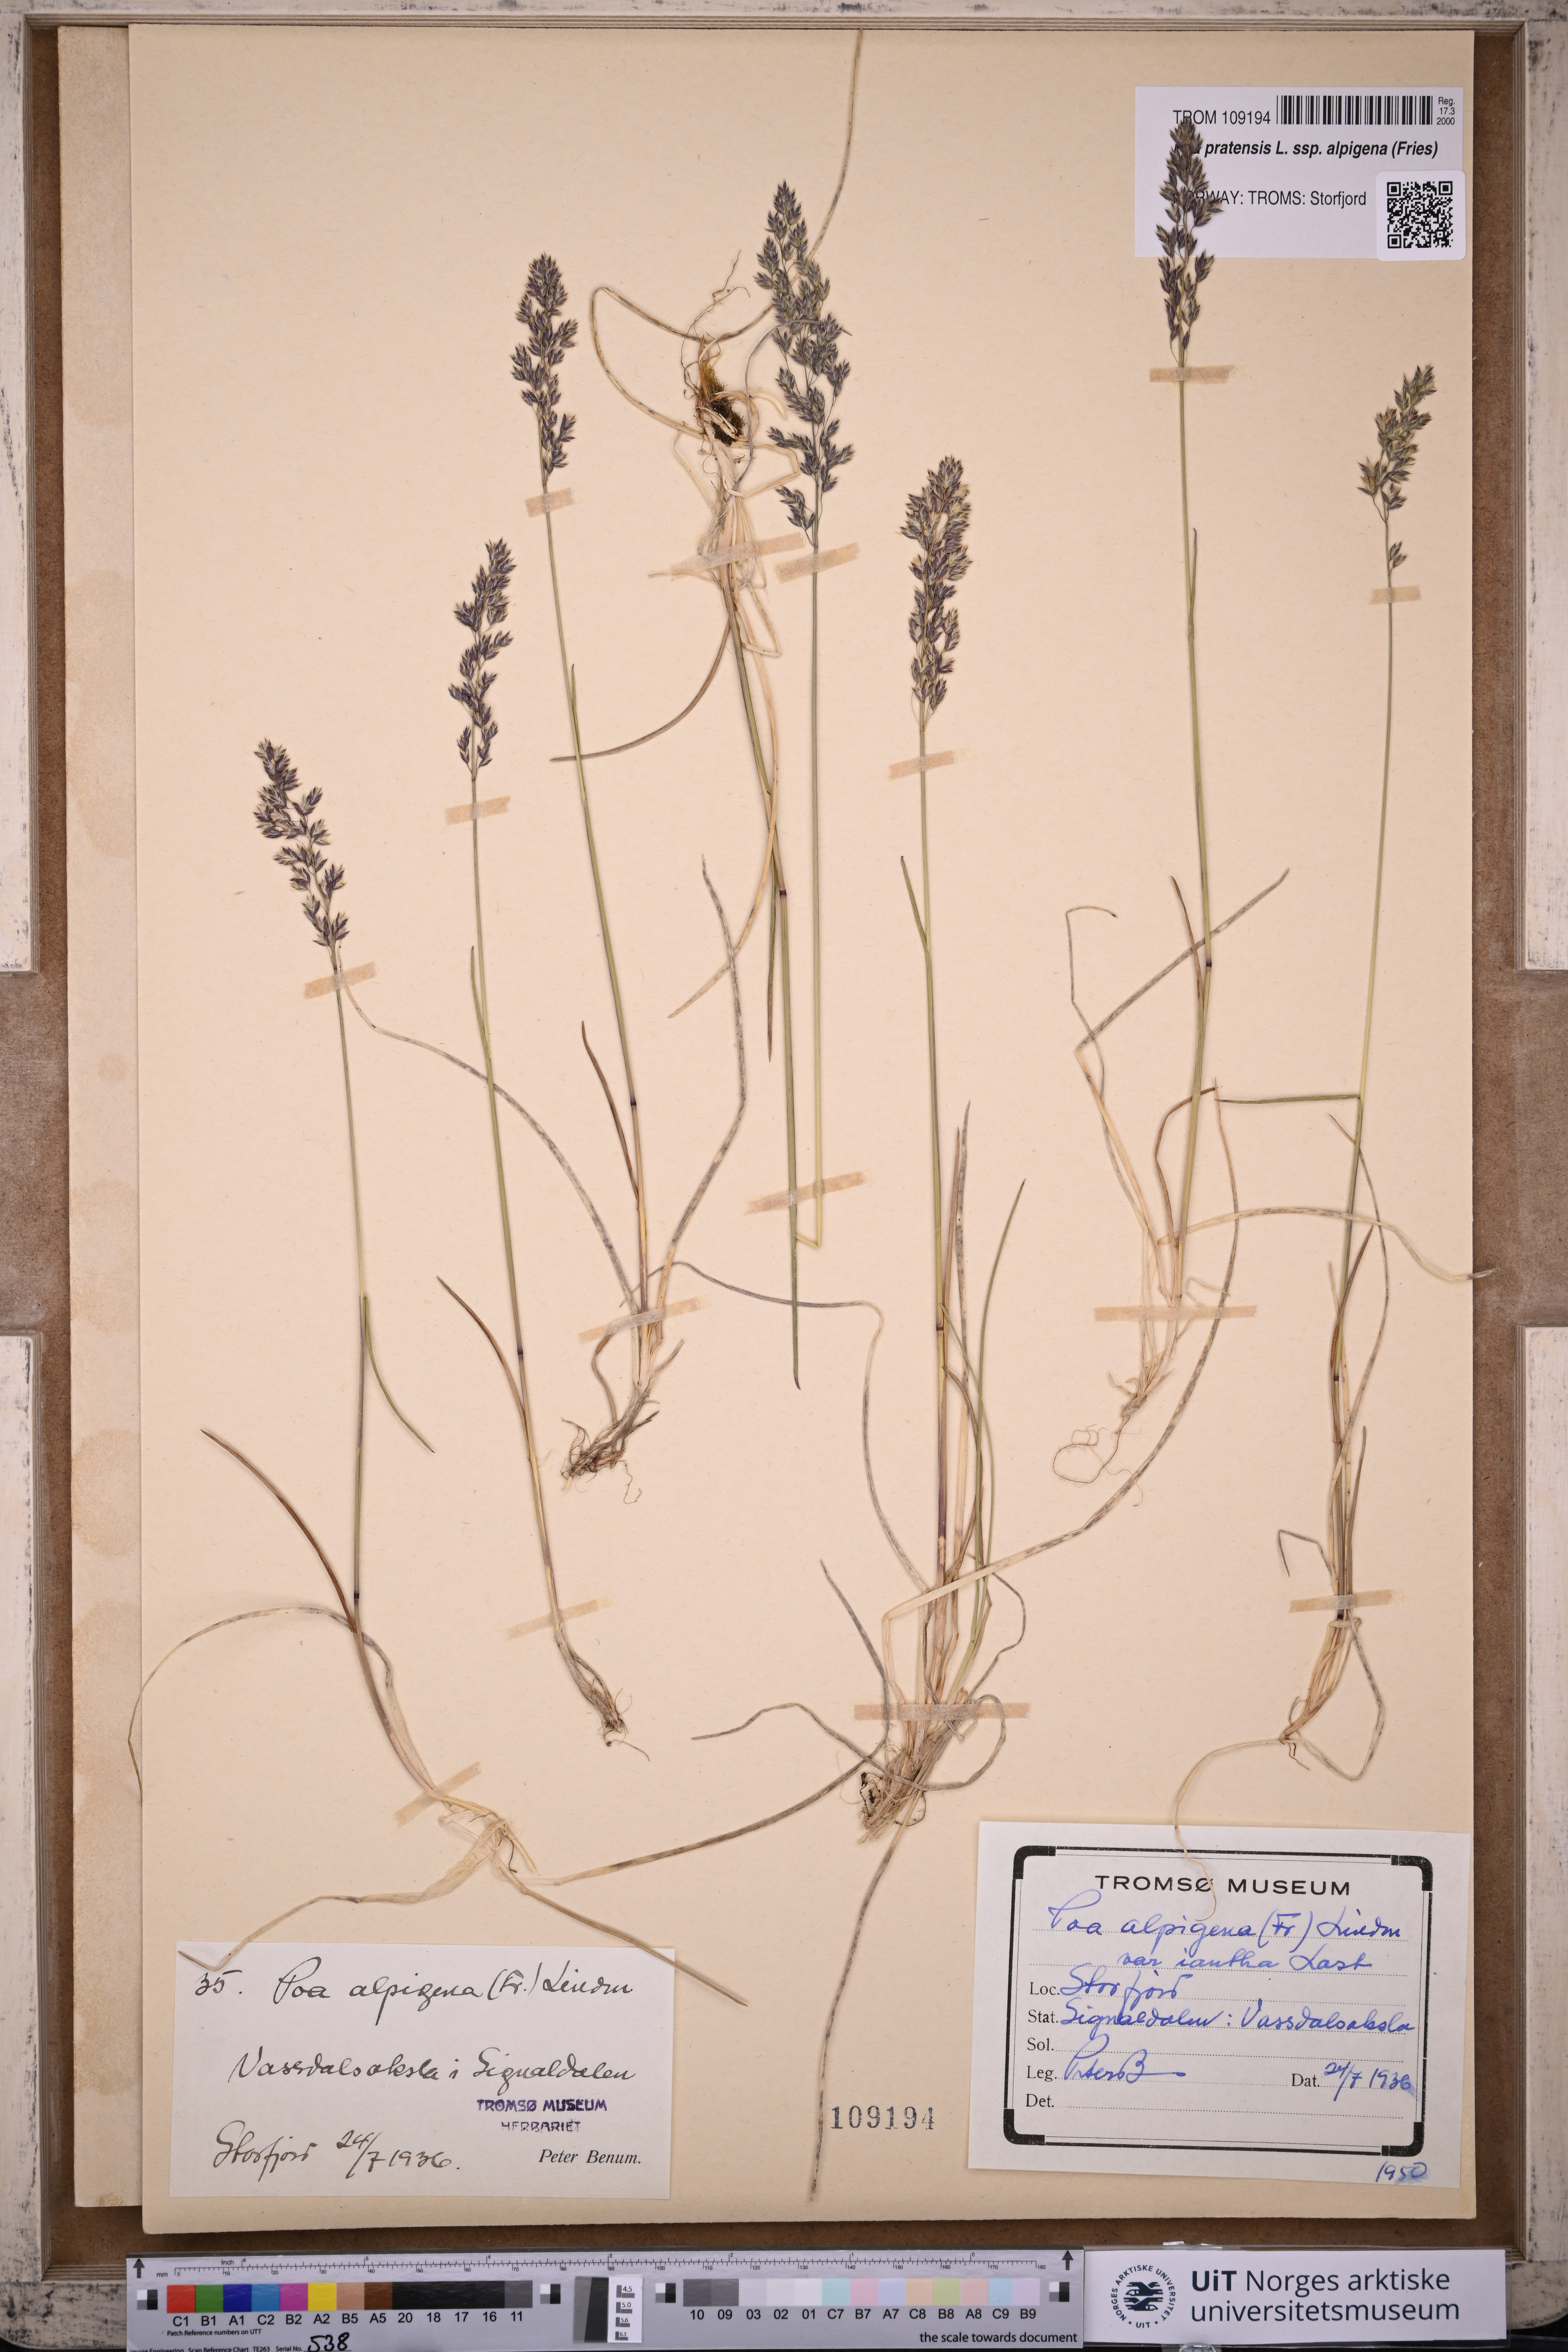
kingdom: Plantae
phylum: Tracheophyta
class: Liliopsida
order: Poales
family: Poaceae
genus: Poa
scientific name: Poa alpigena
